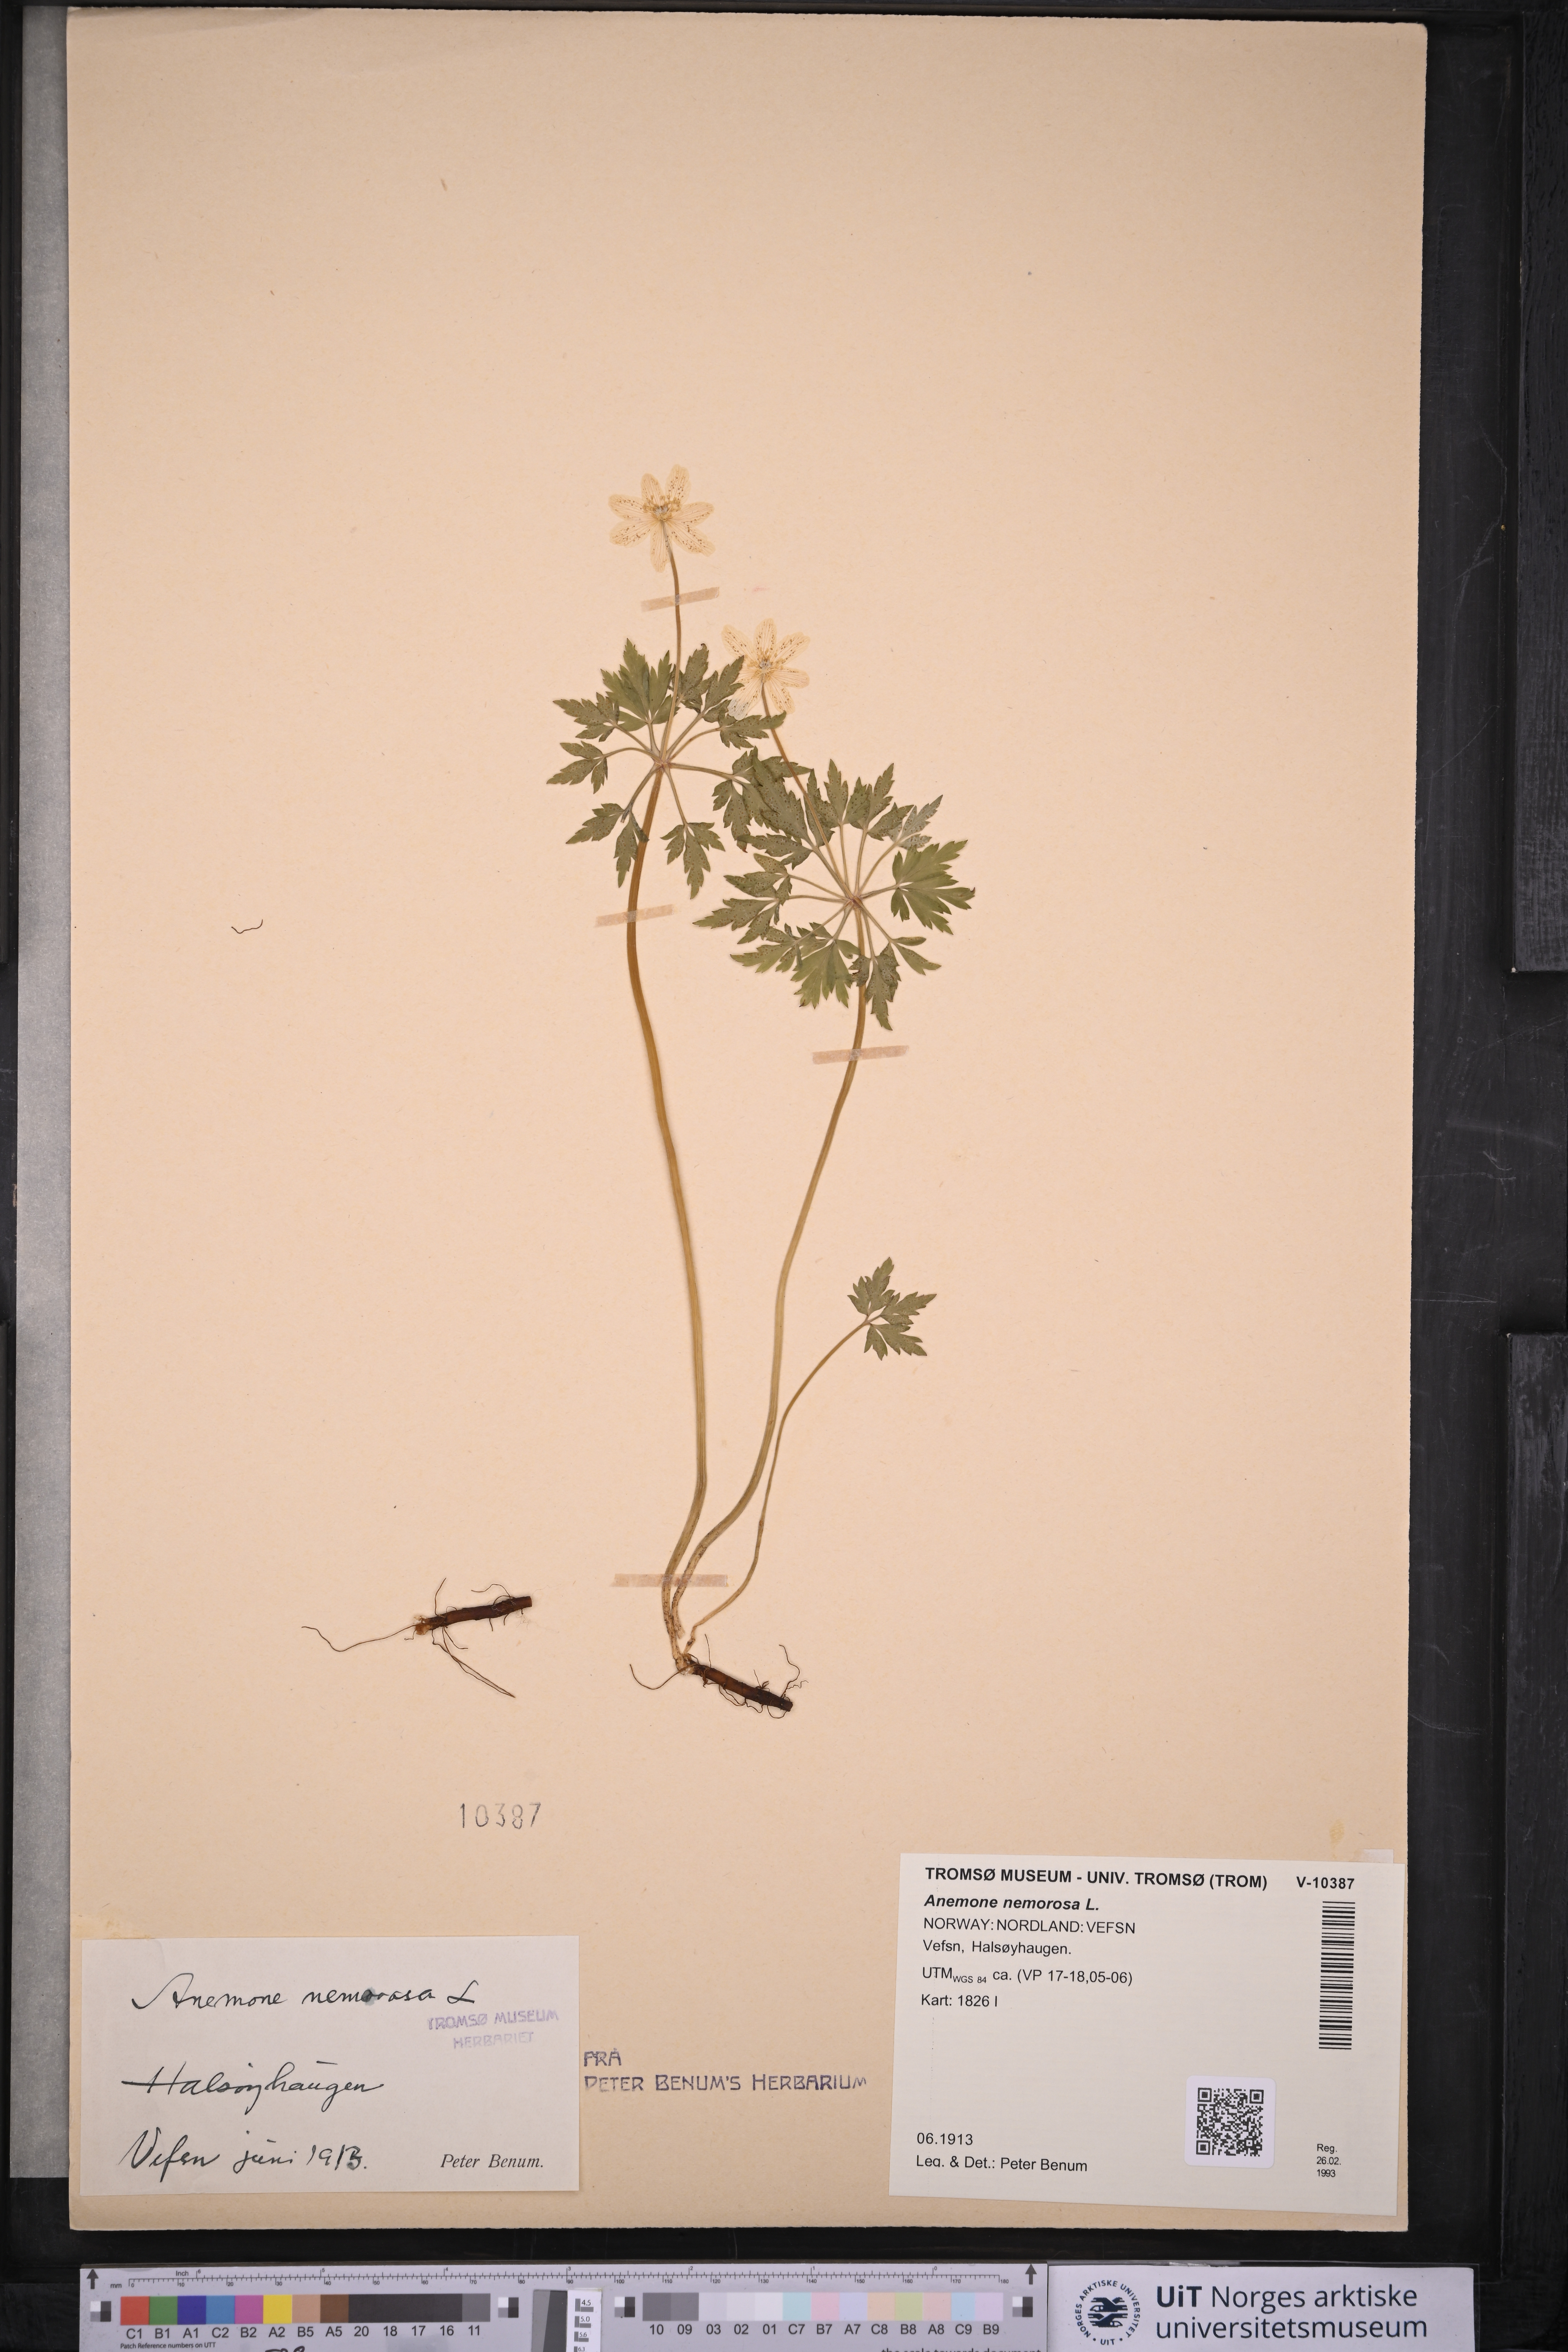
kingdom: Plantae
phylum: Tracheophyta
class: Magnoliopsida
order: Ranunculales
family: Ranunculaceae
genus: Anemone
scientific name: Anemone nemorosa
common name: Wood anemone
